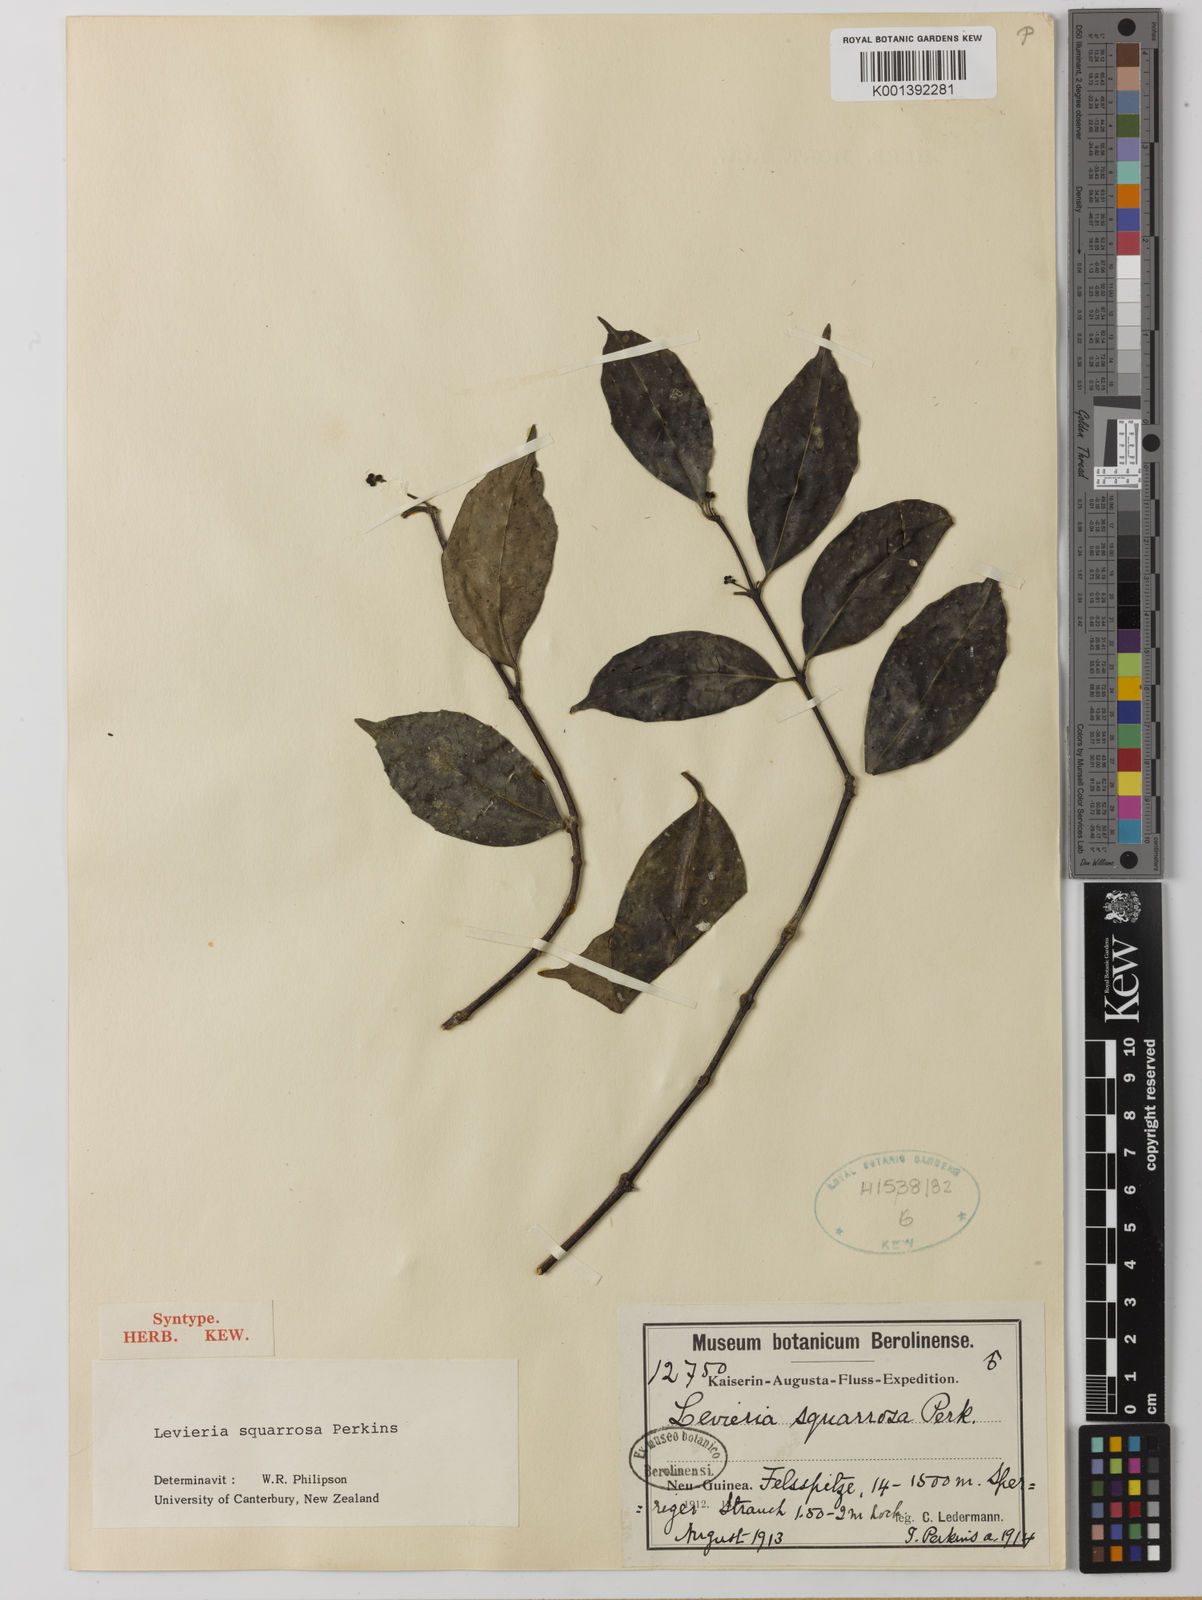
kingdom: Plantae
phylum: Tracheophyta
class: Magnoliopsida
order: Laurales
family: Monimiaceae
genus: Levieria
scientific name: Levieria squarrosa
